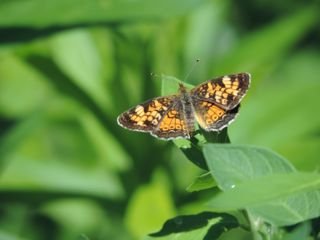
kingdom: Animalia
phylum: Arthropoda
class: Insecta
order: Lepidoptera
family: Nymphalidae
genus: Phyciodes
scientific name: Phyciodes tharos
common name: Pearl Crescent
